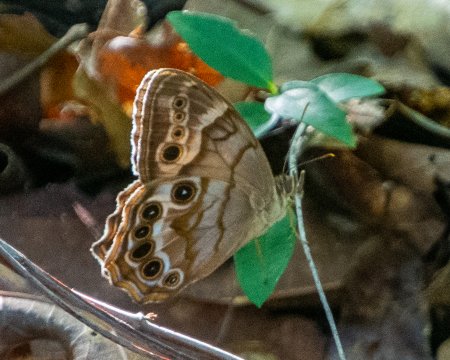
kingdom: Animalia
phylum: Arthropoda
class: Insecta
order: Lepidoptera
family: Nymphalidae
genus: Lethe
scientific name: Lethe creola
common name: Creole Pearly-Eye
